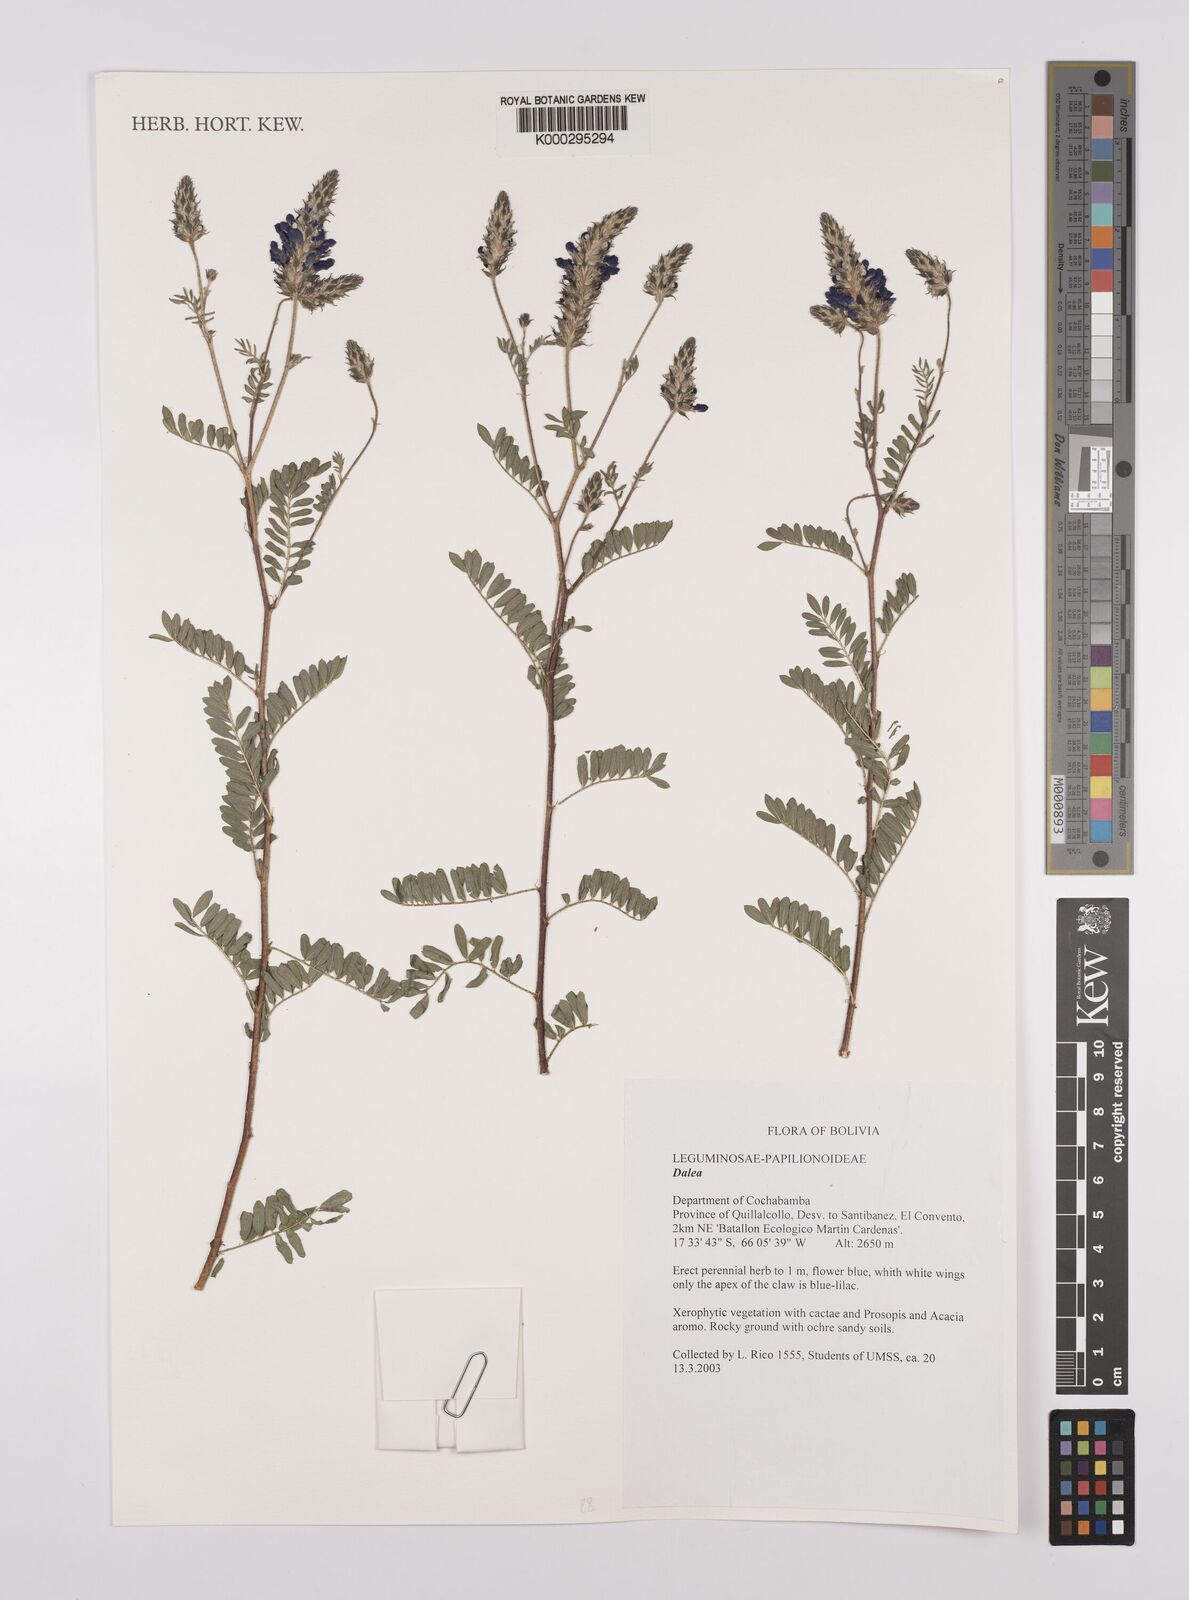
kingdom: Plantae
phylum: Tracheophyta
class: Magnoliopsida
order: Fabales
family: Fabaceae
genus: Dalea
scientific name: Dalea pazensis
